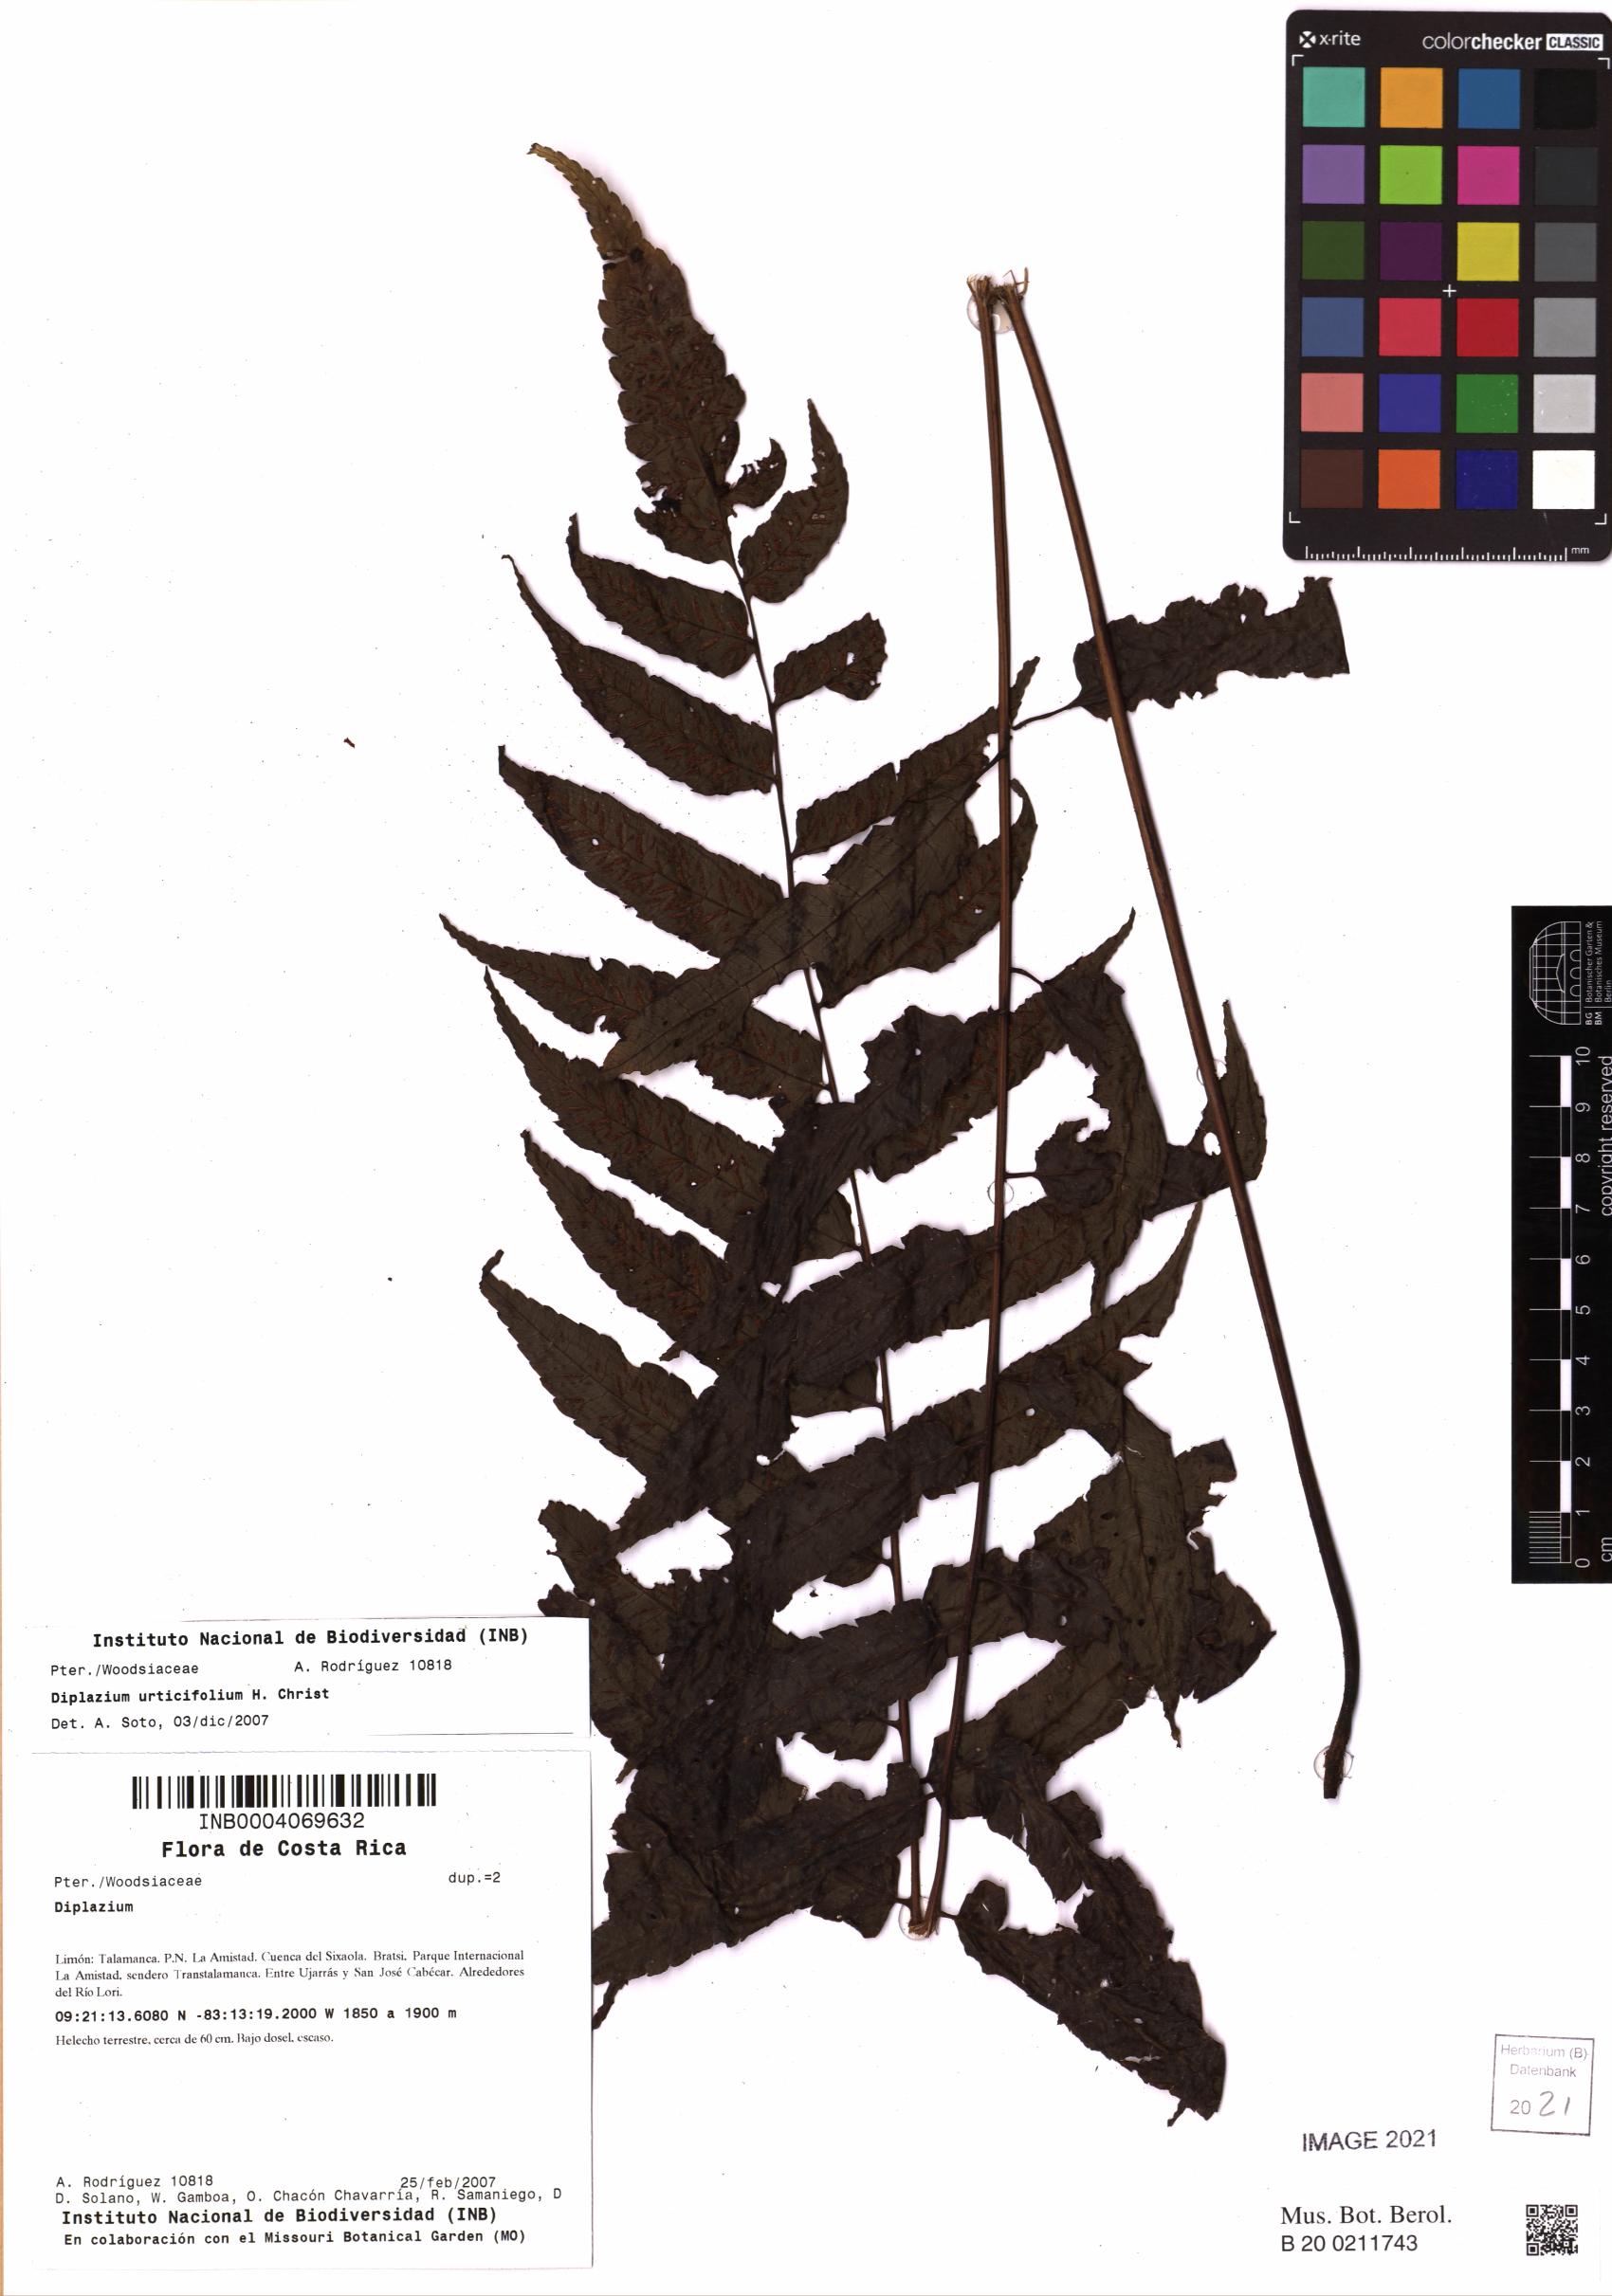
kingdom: Plantae
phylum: Tracheophyta
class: Polypodiopsida
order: Polypodiales
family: Athyriaceae
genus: Diplazium
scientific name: Diplazium urticifolium
